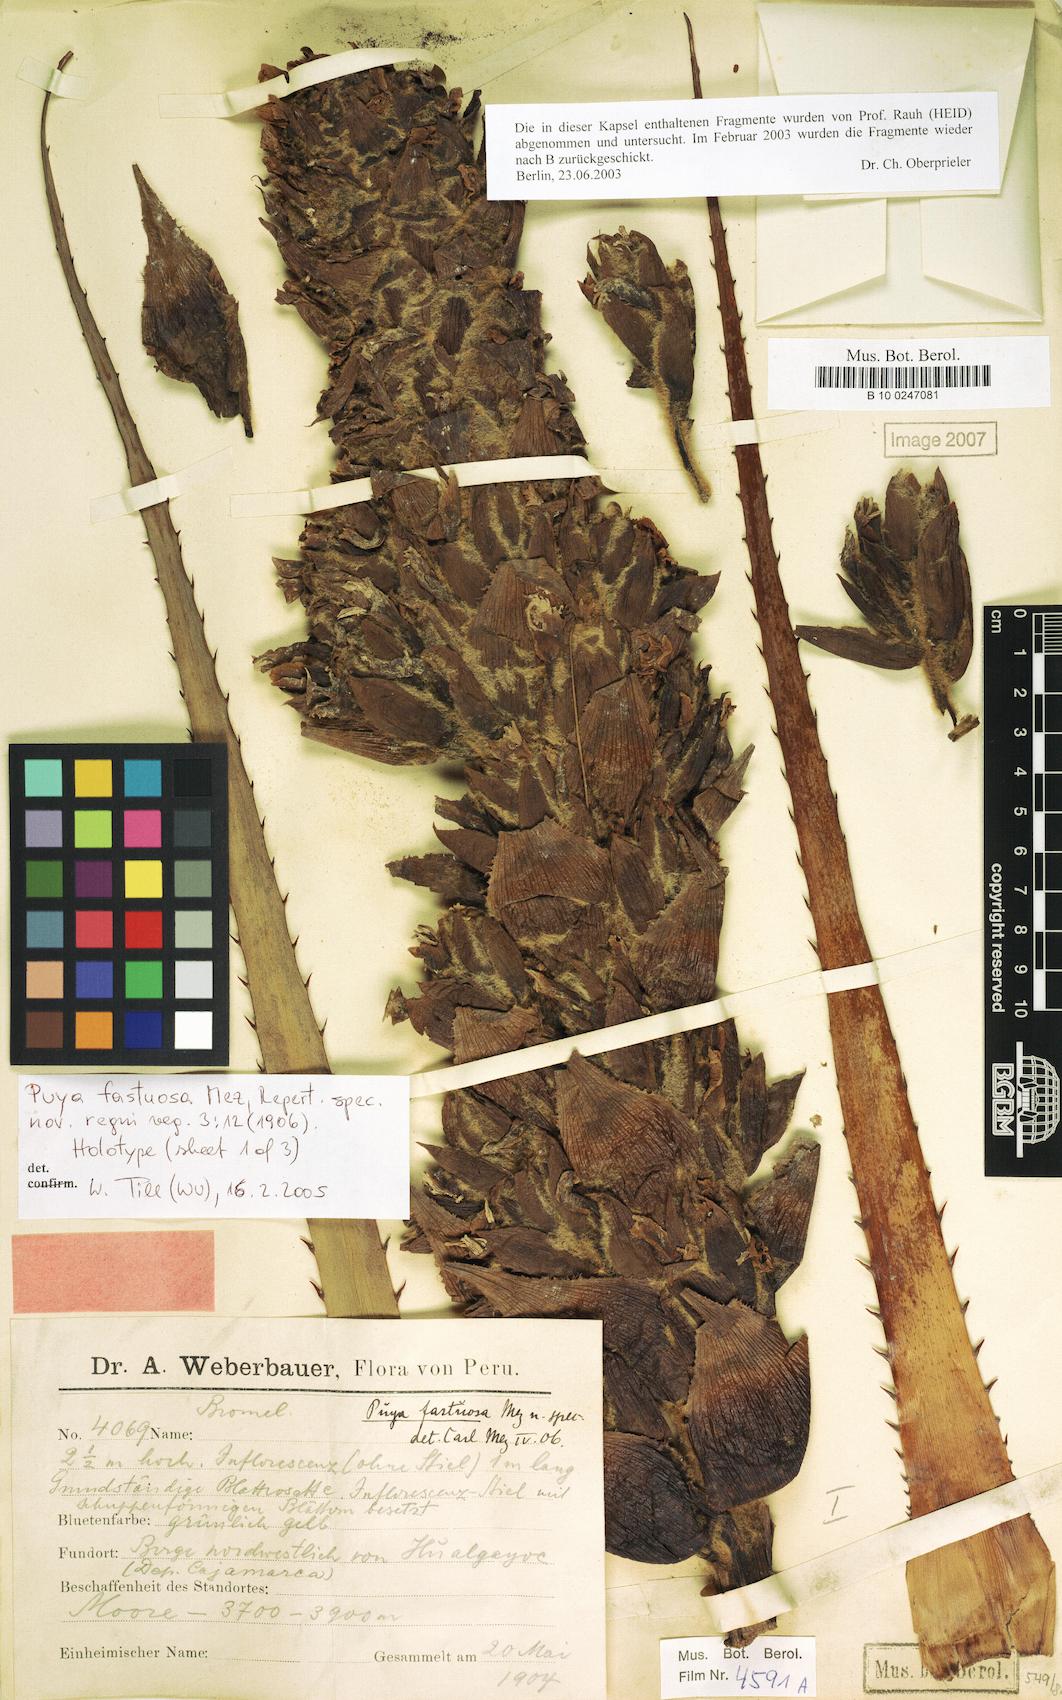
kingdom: Plantae
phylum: Tracheophyta
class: Liliopsida
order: Poales
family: Bromeliaceae
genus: Puya
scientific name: Puya fastuosa
